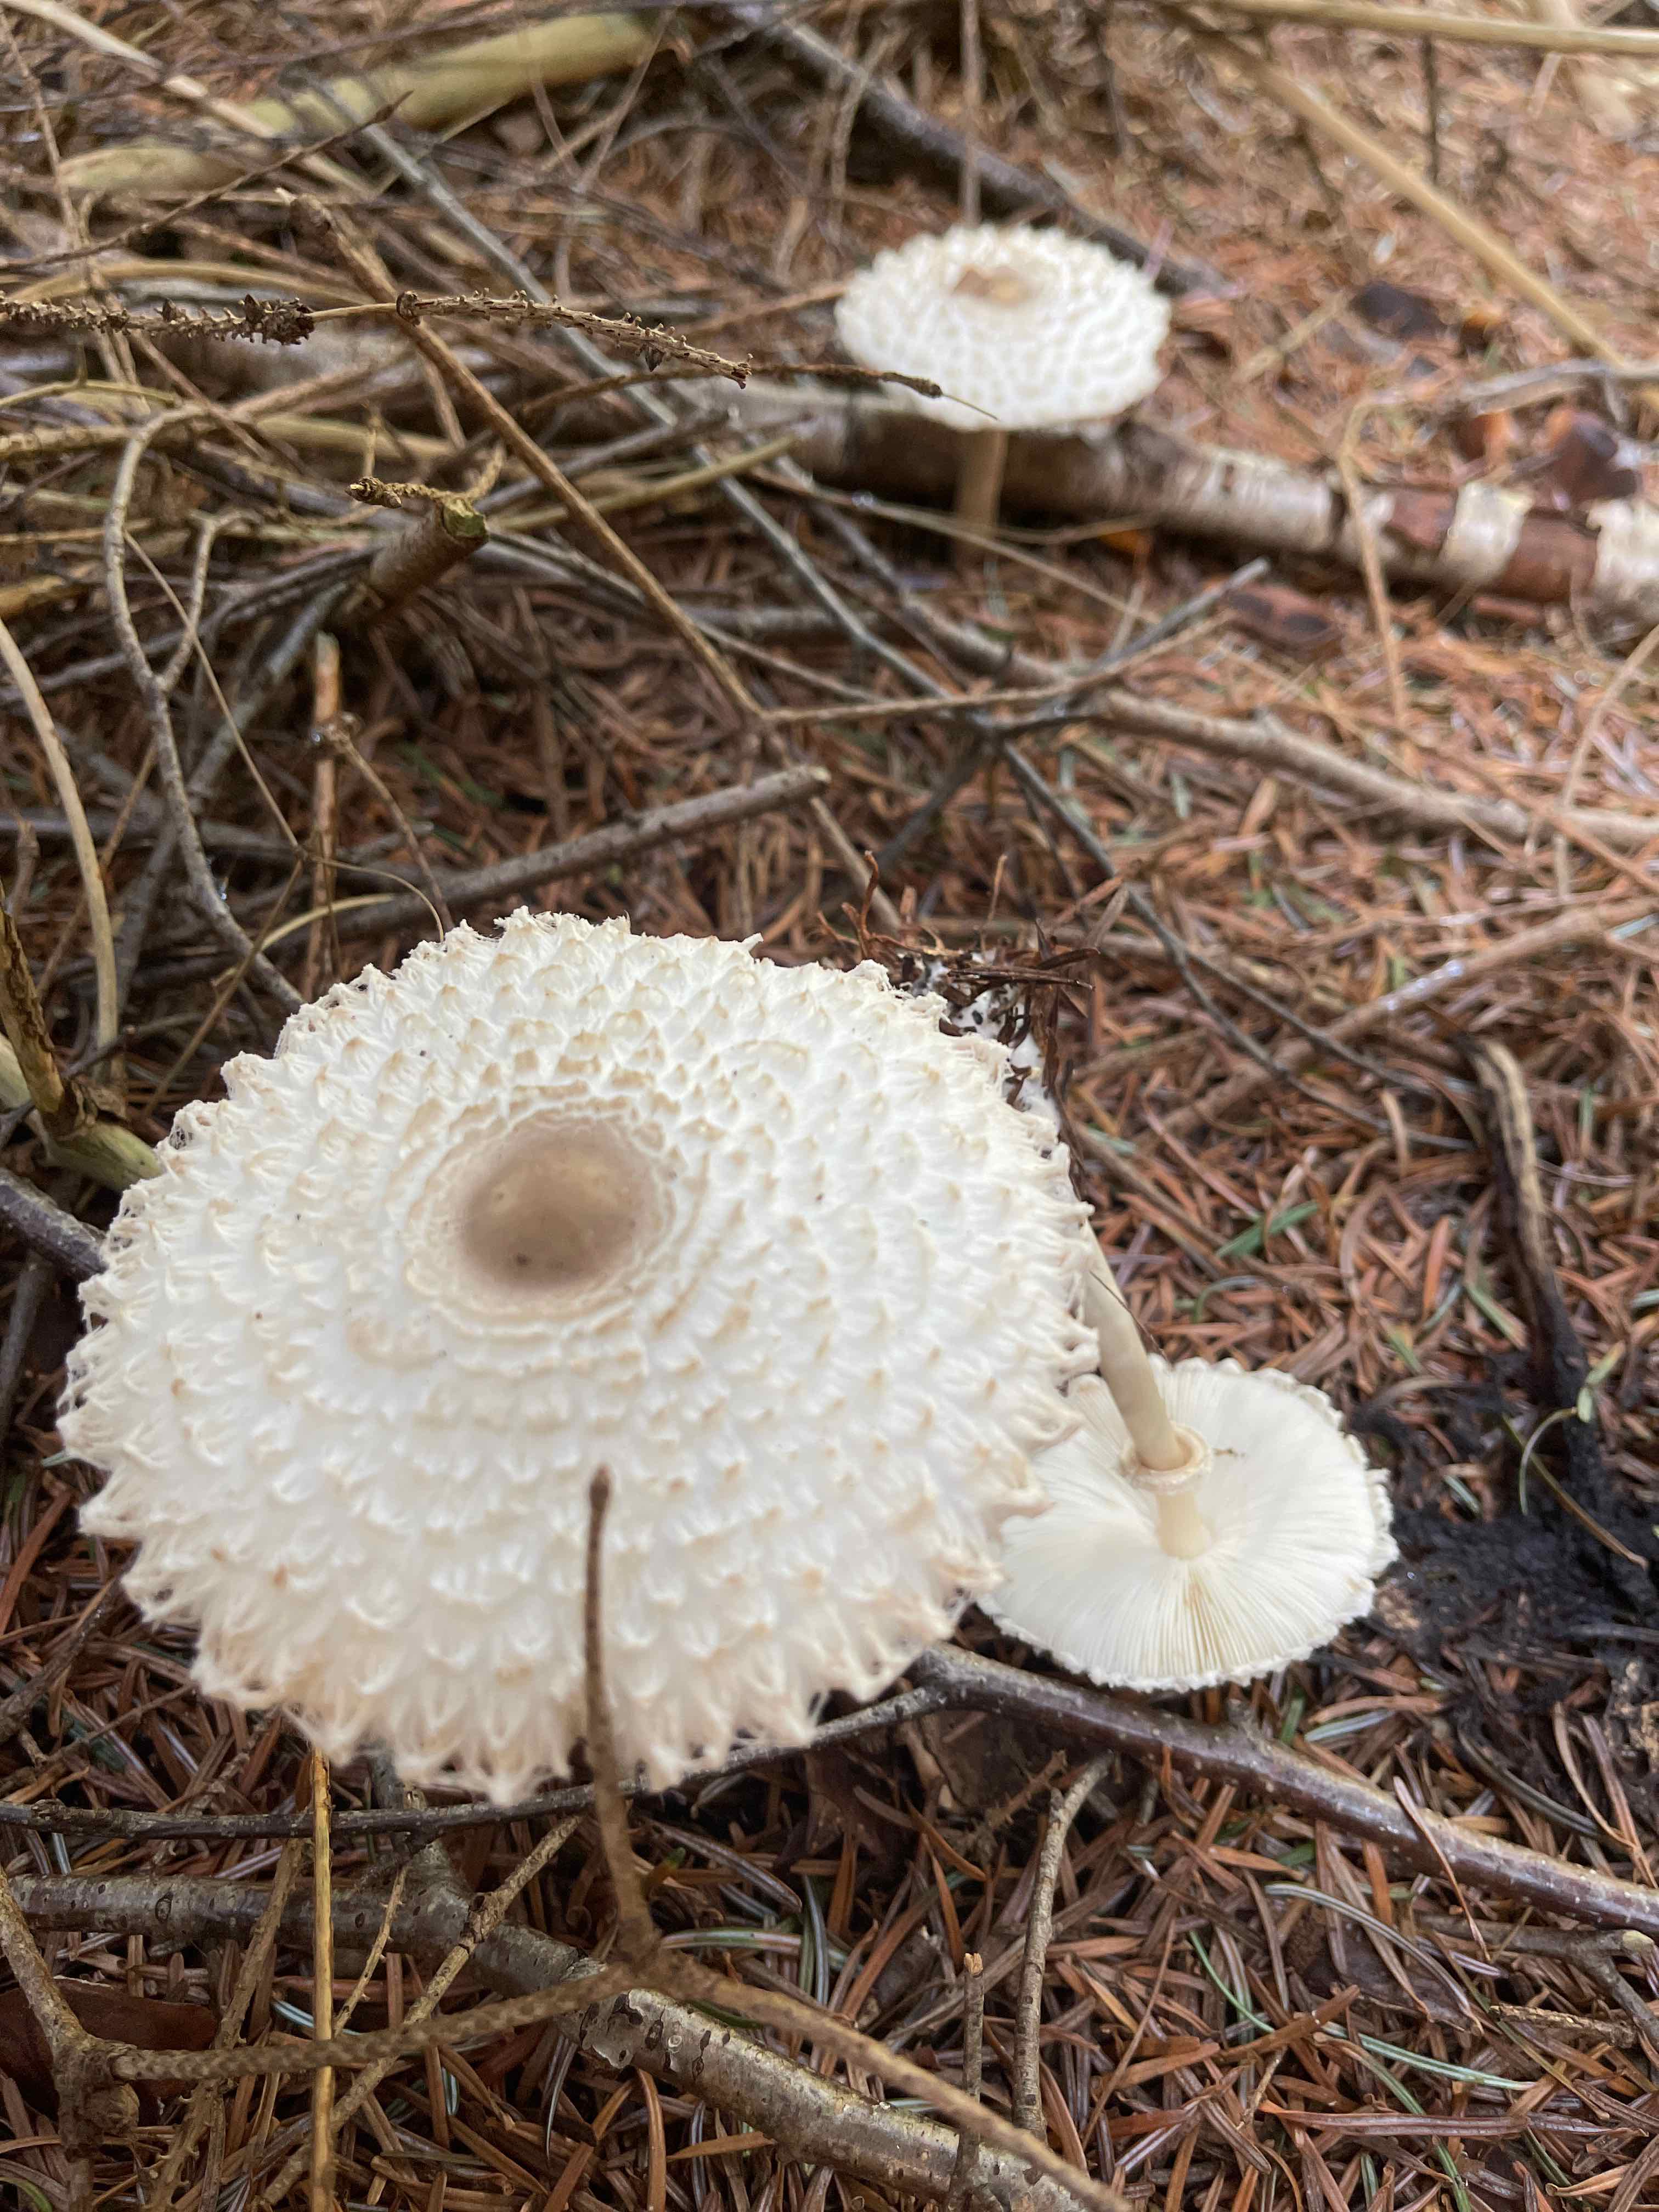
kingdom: Fungi
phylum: Basidiomycota
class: Agaricomycetes
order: Agaricales
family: Agaricaceae
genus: Leucoagaricus
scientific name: Leucoagaricus nympharum
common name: gran-silkehat
